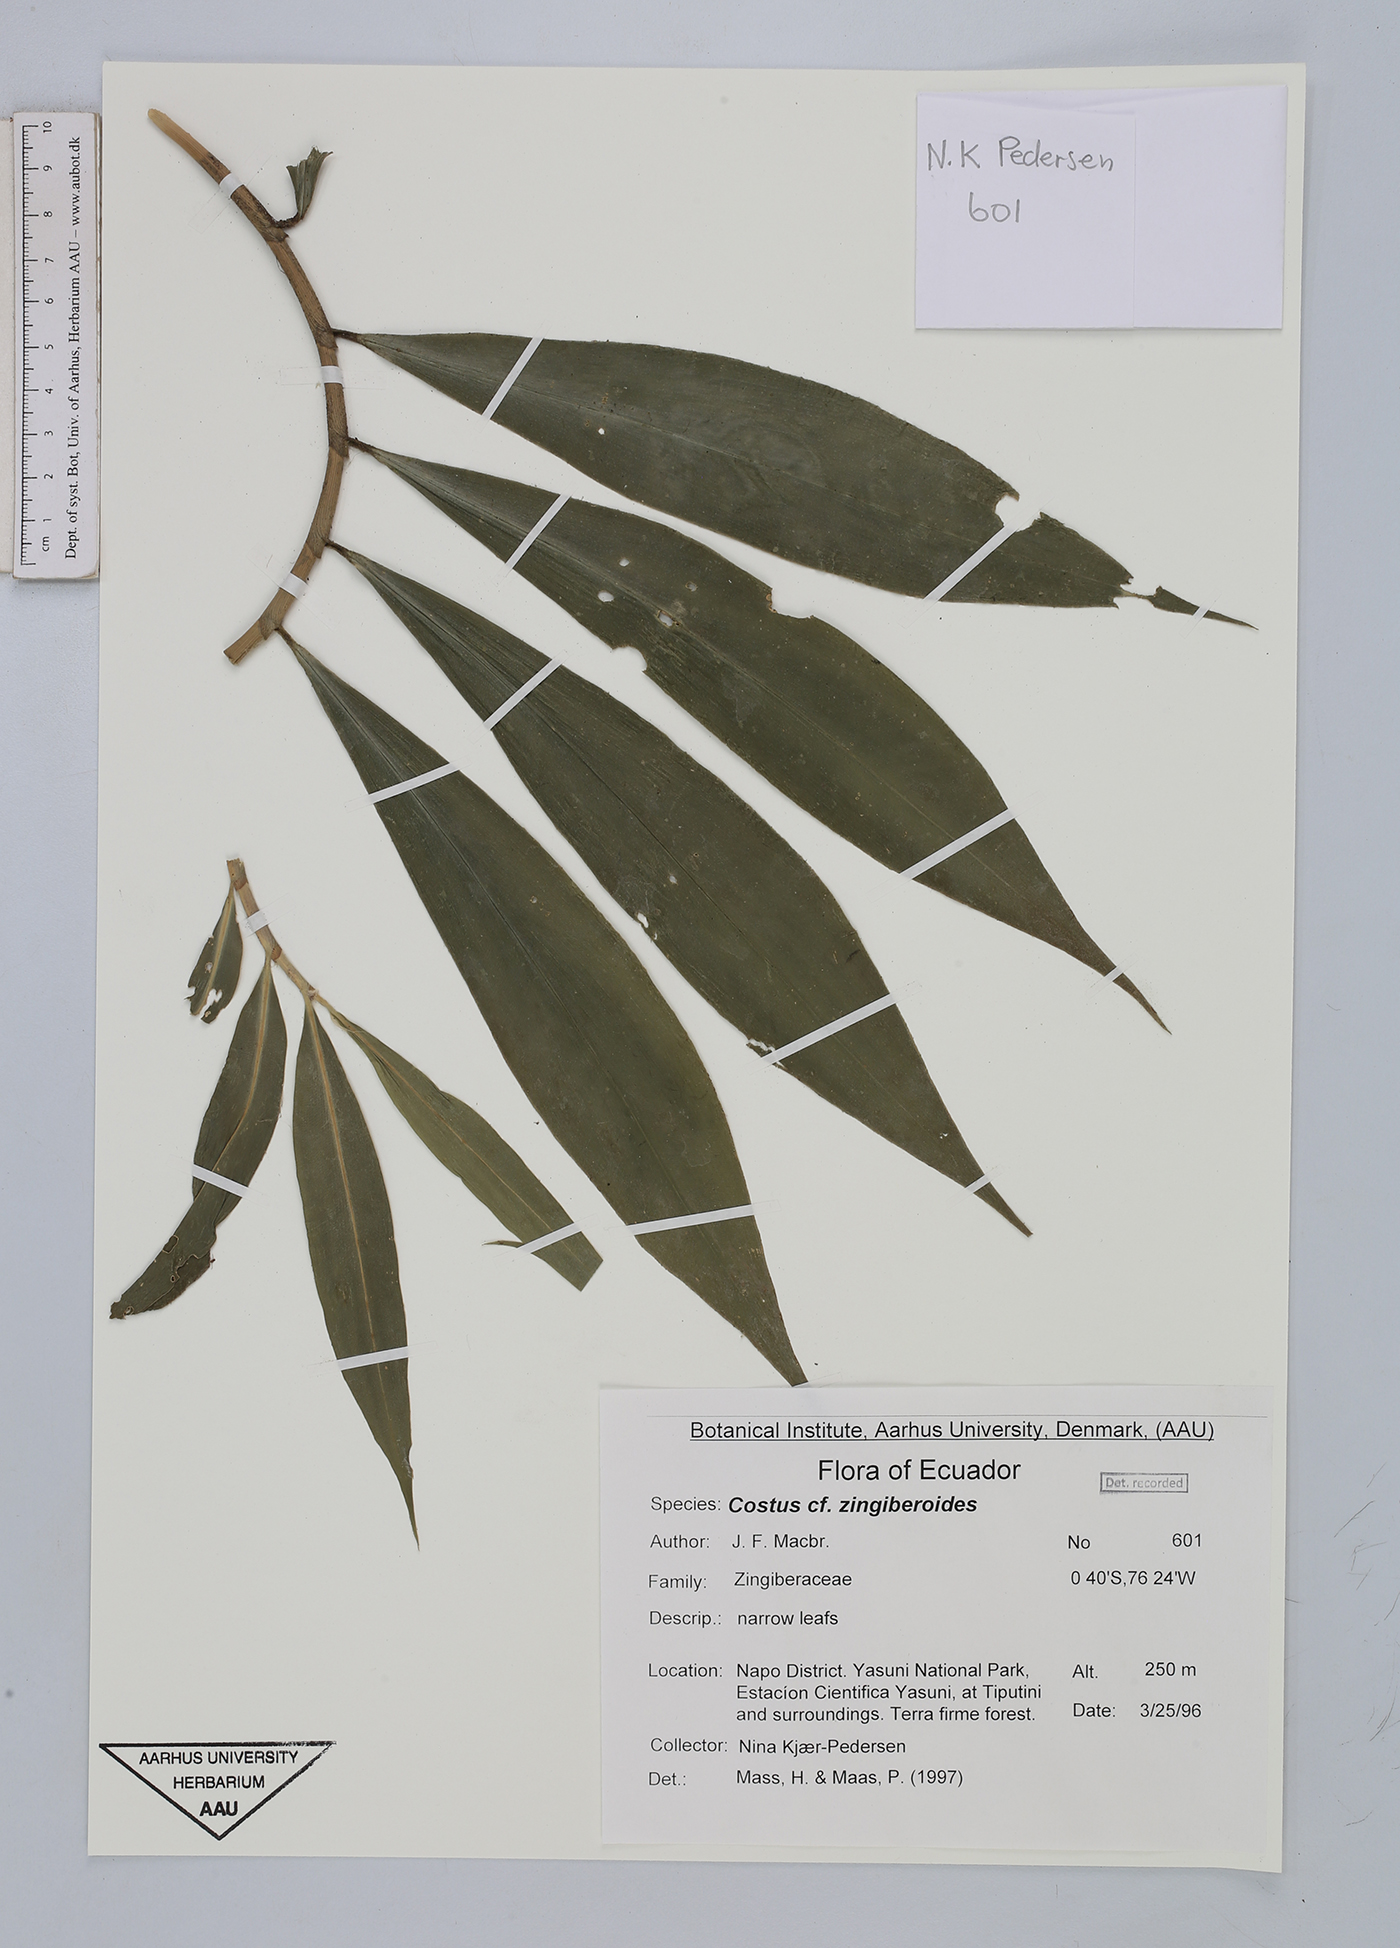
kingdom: Plantae
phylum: Tracheophyta
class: Liliopsida
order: Zingiberales
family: Costaceae
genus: Costus
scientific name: Costus zingiberoides
